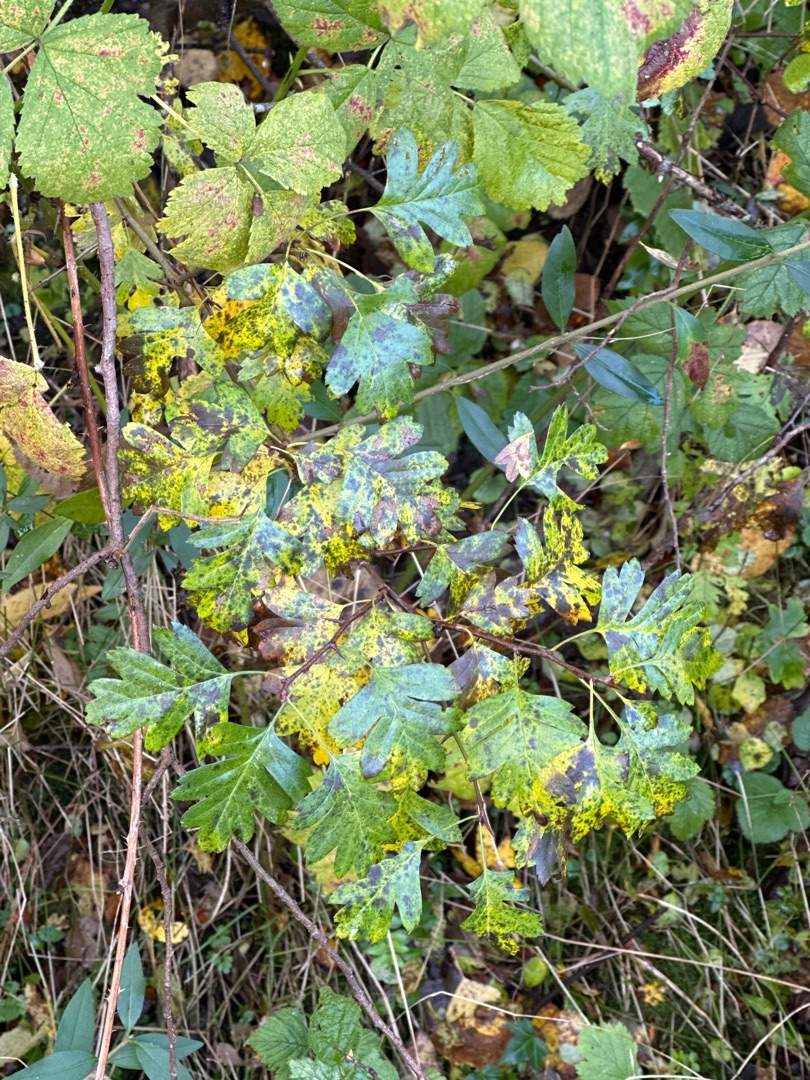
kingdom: Plantae
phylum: Tracheophyta
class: Magnoliopsida
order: Rosales
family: Rosaceae
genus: Crataegus
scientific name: Crataegus monogyna
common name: Engriflet hvidtjørn
